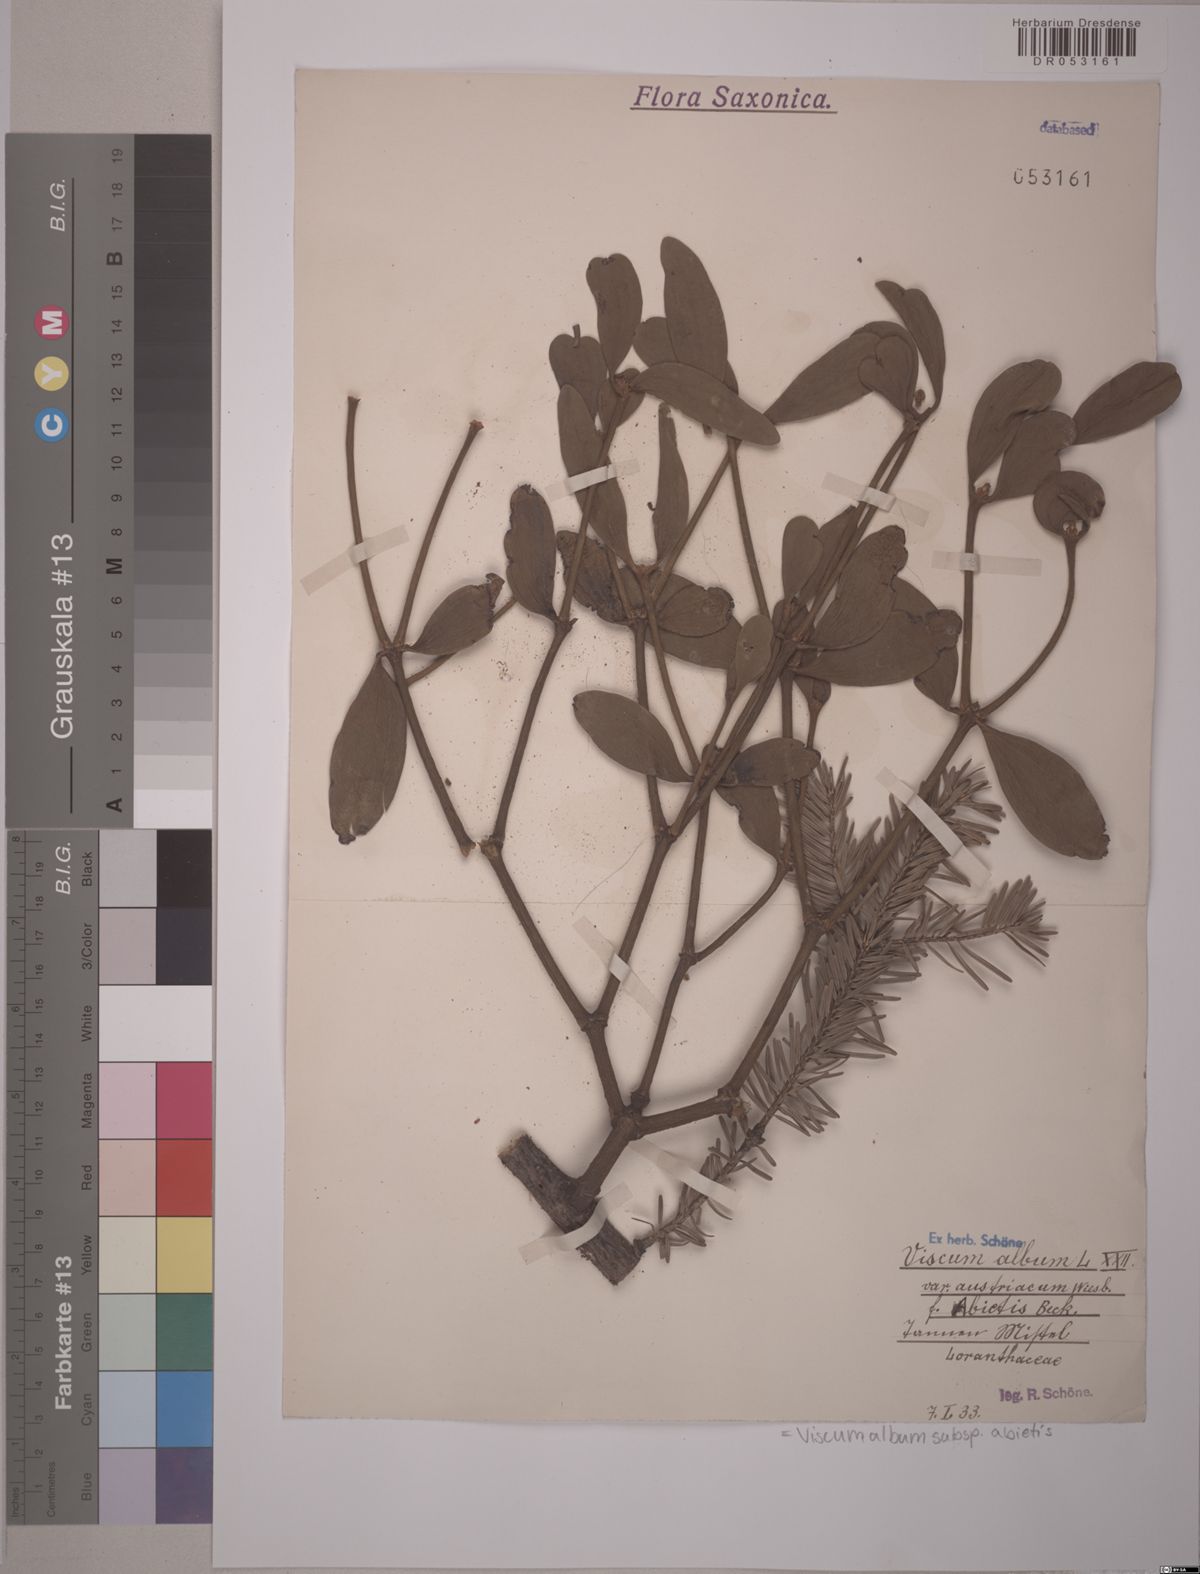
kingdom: Plantae
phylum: Tracheophyta
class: Magnoliopsida
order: Santalales
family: Viscaceae
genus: Viscum
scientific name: Viscum album
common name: Mistletoe
